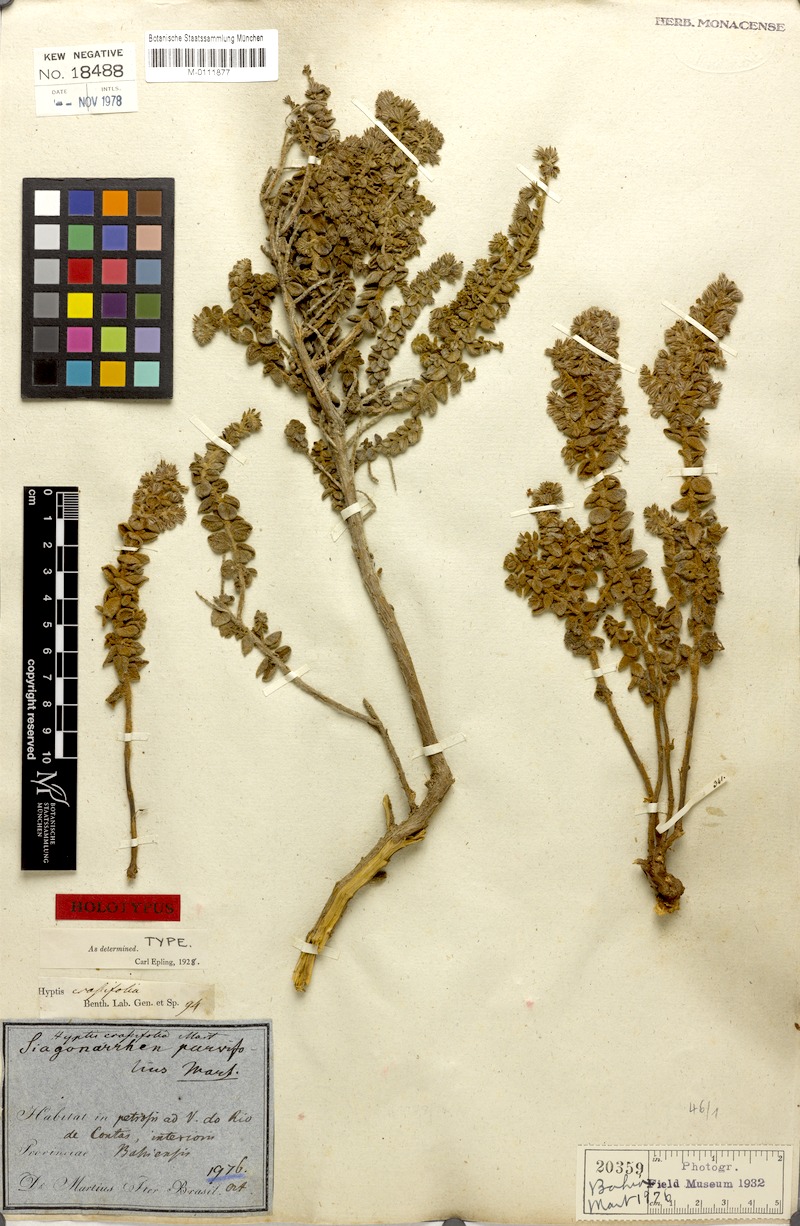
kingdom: Plantae
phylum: Tracheophyta
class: Magnoliopsida
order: Lamiales
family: Lamiaceae
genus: Oocephalus
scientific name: Oocephalus crassifolius
